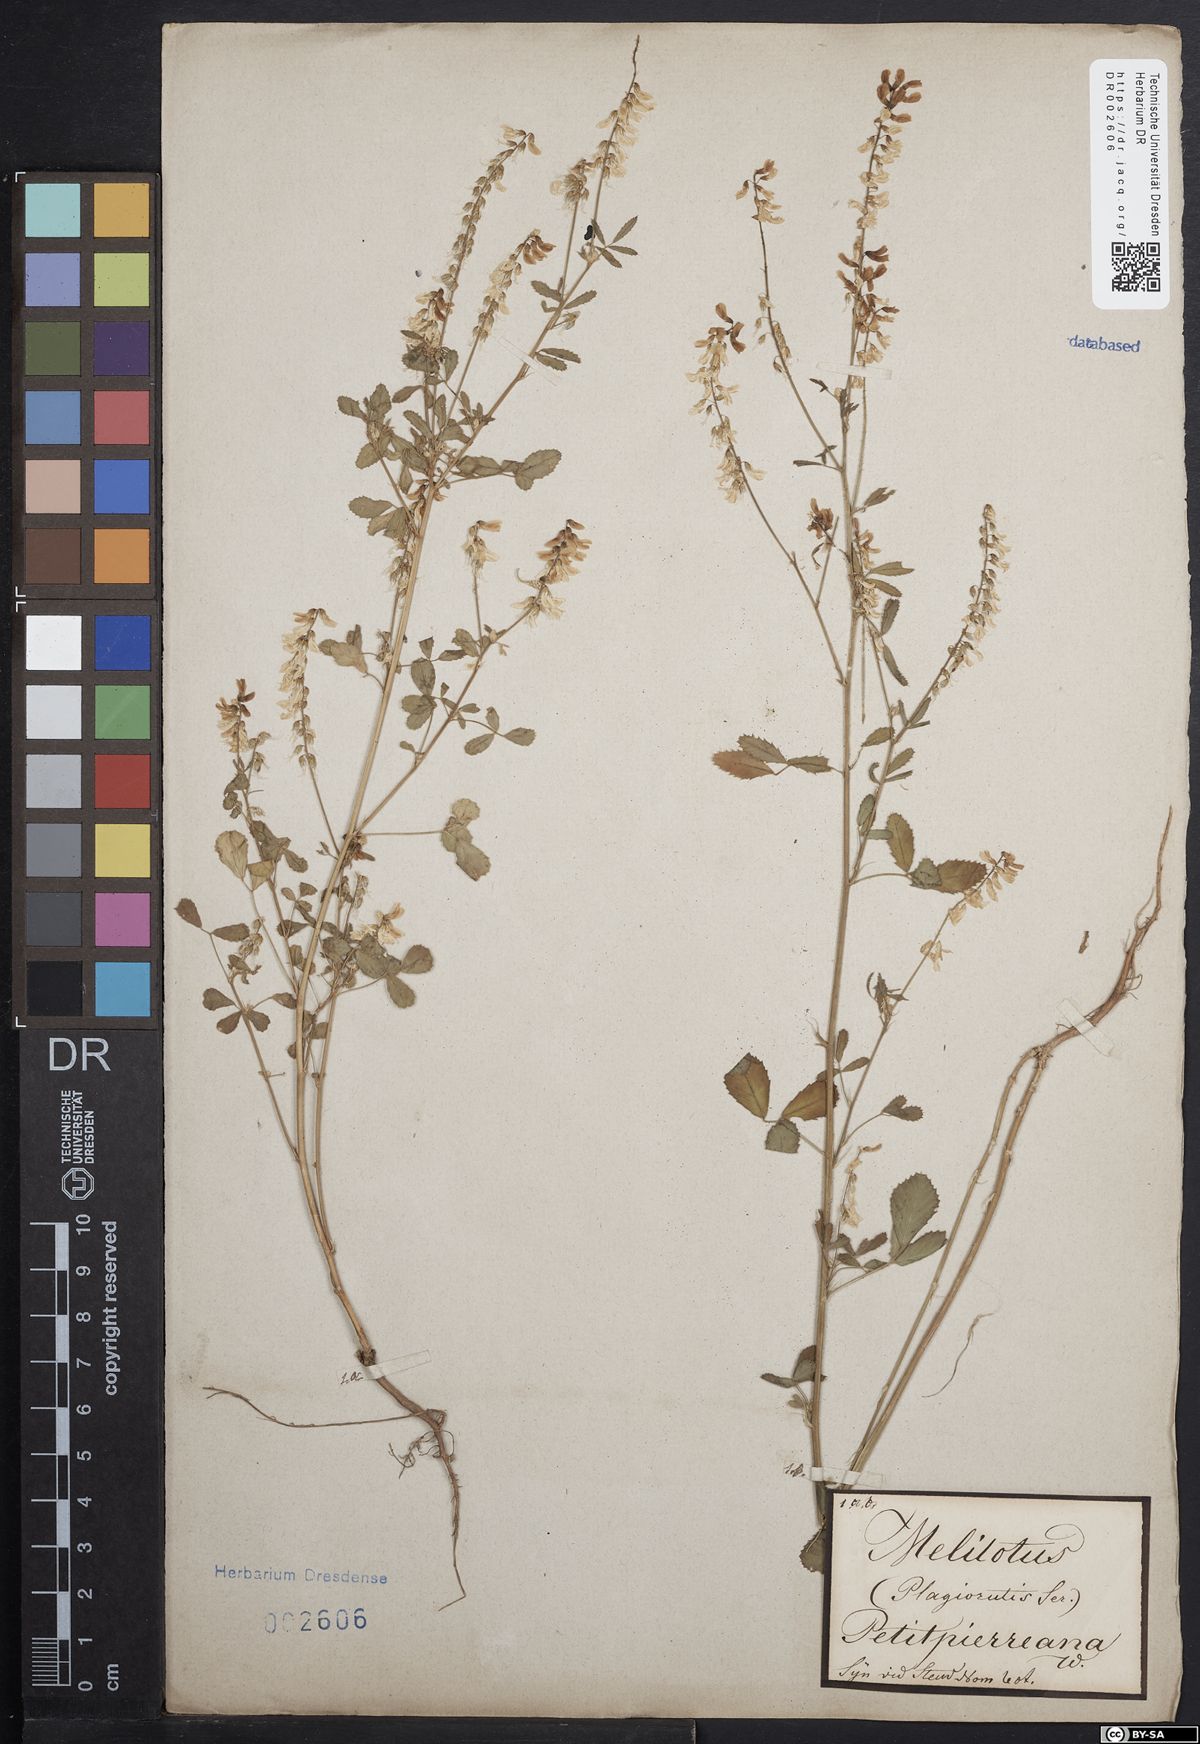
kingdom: Plantae
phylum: Tracheophyta
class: Magnoliopsida
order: Fabales
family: Fabaceae
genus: Melilotus
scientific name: Melilotus officinalis
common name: Sweetclover
